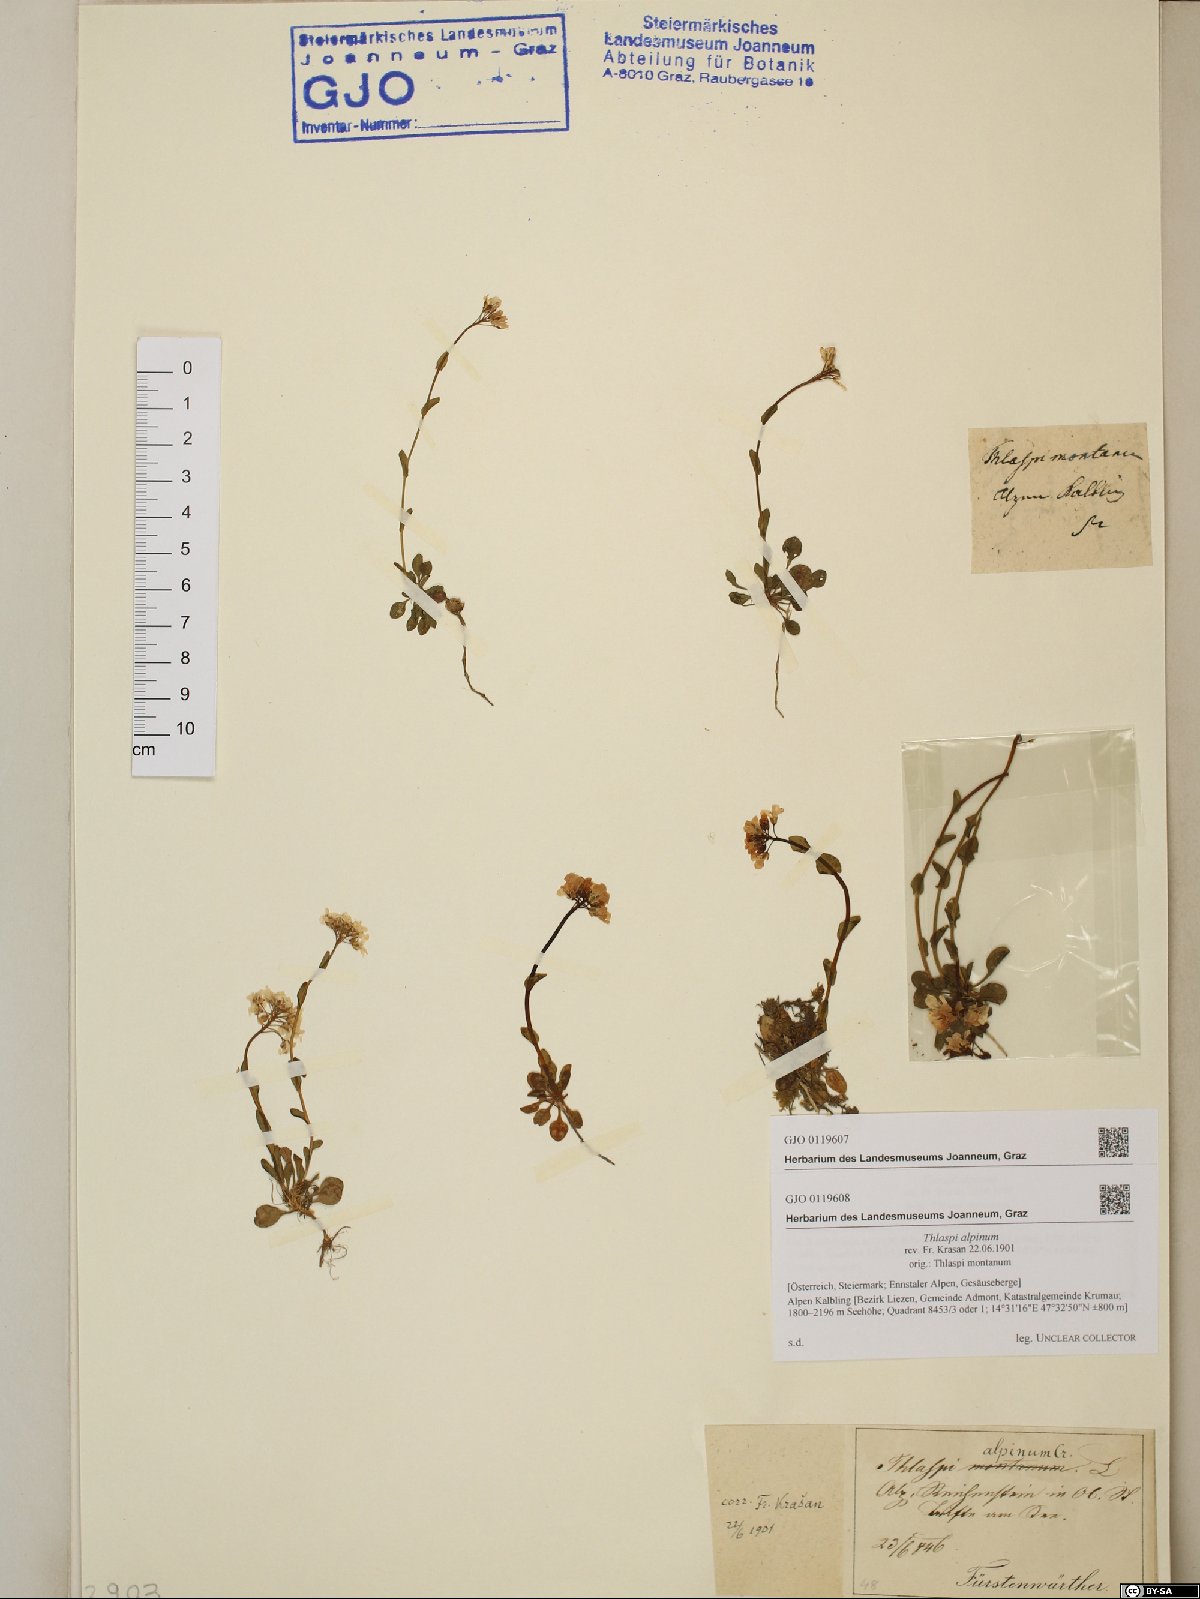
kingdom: Plantae
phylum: Tracheophyta
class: Magnoliopsida
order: Brassicales
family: Brassicaceae
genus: Noccaea
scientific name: Noccaea alpestris
